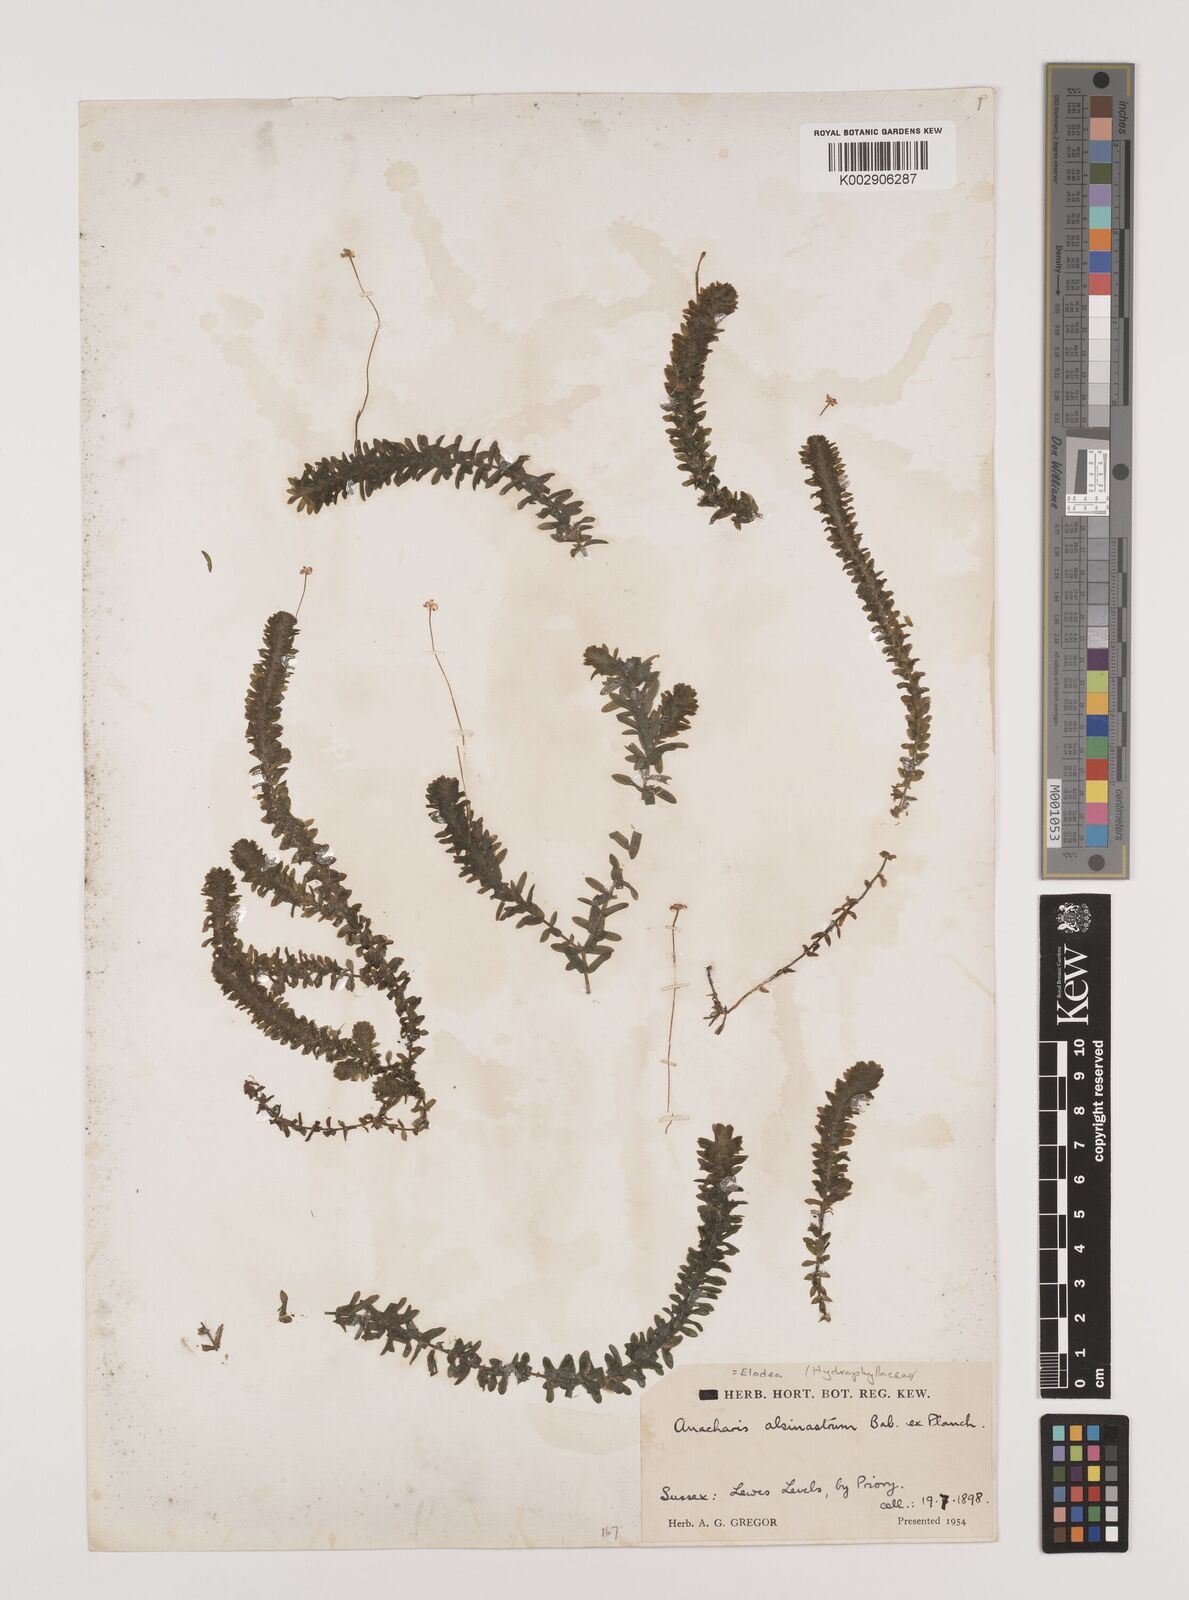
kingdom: Plantae
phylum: Tracheophyta
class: Liliopsida
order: Alismatales
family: Hydrocharitaceae
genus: Elodea
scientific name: Elodea canadensis
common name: Canadian waterweed
